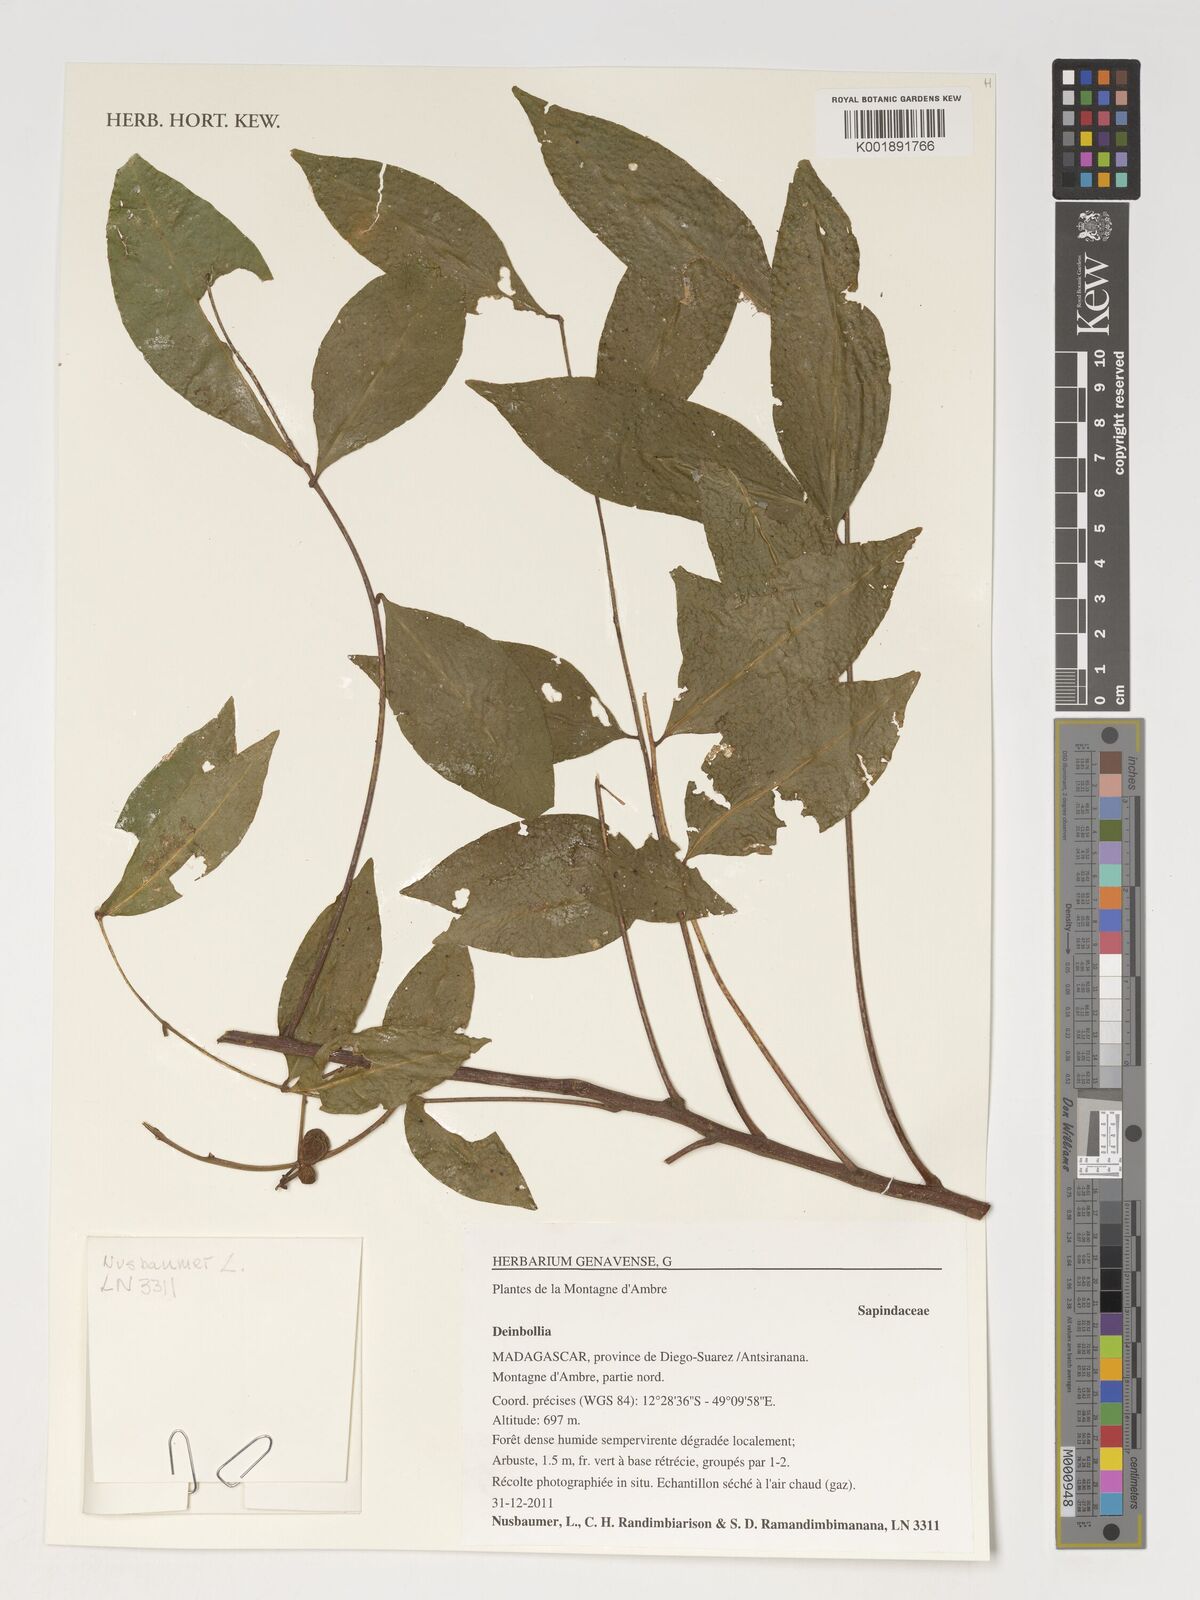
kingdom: Plantae
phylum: Tracheophyta
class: Magnoliopsida
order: Sapindales
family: Sapindaceae
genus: Deinbollia
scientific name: Deinbollia
